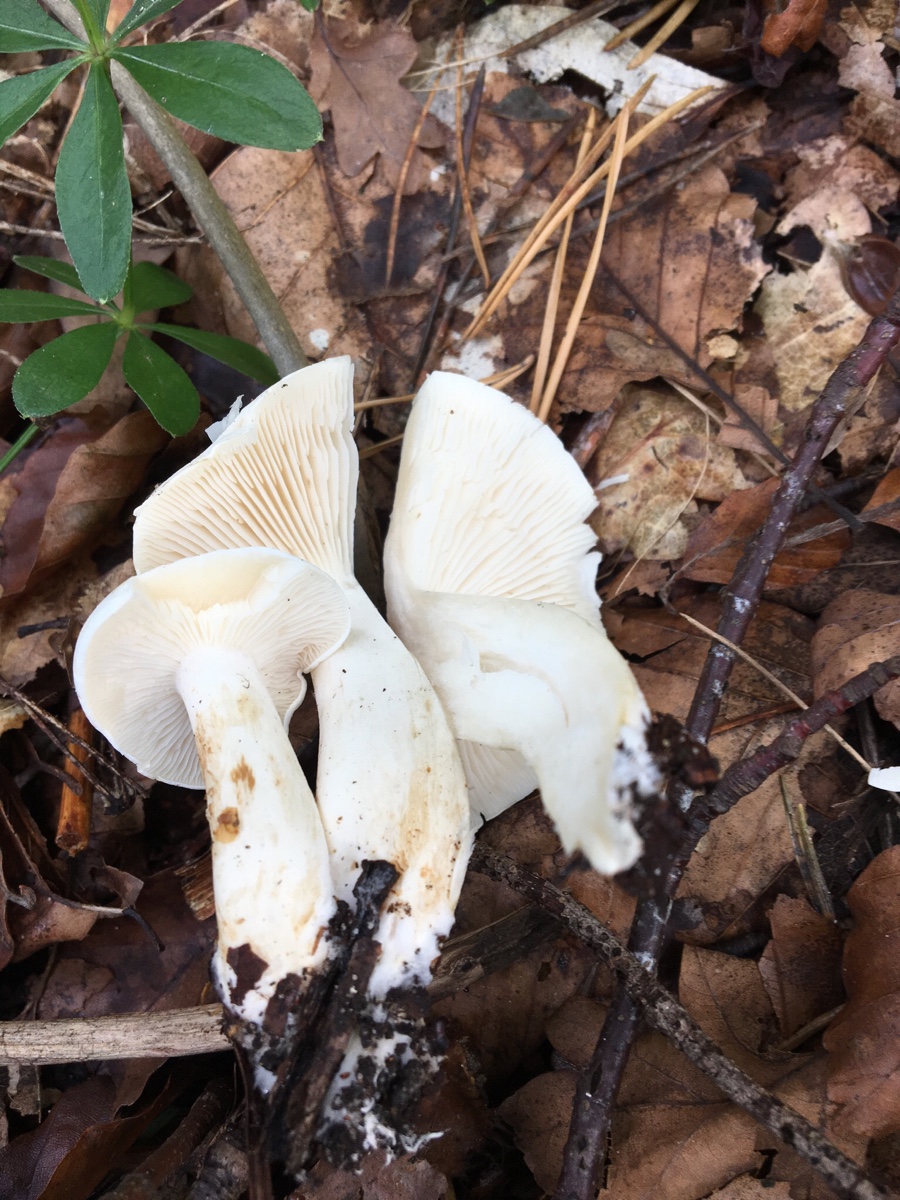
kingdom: Fungi
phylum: Basidiomycota
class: Agaricomycetes
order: Agaricales
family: Tricholomataceae
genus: Tricholoma
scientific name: Tricholoma lascivum
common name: stinkende ridderhat
